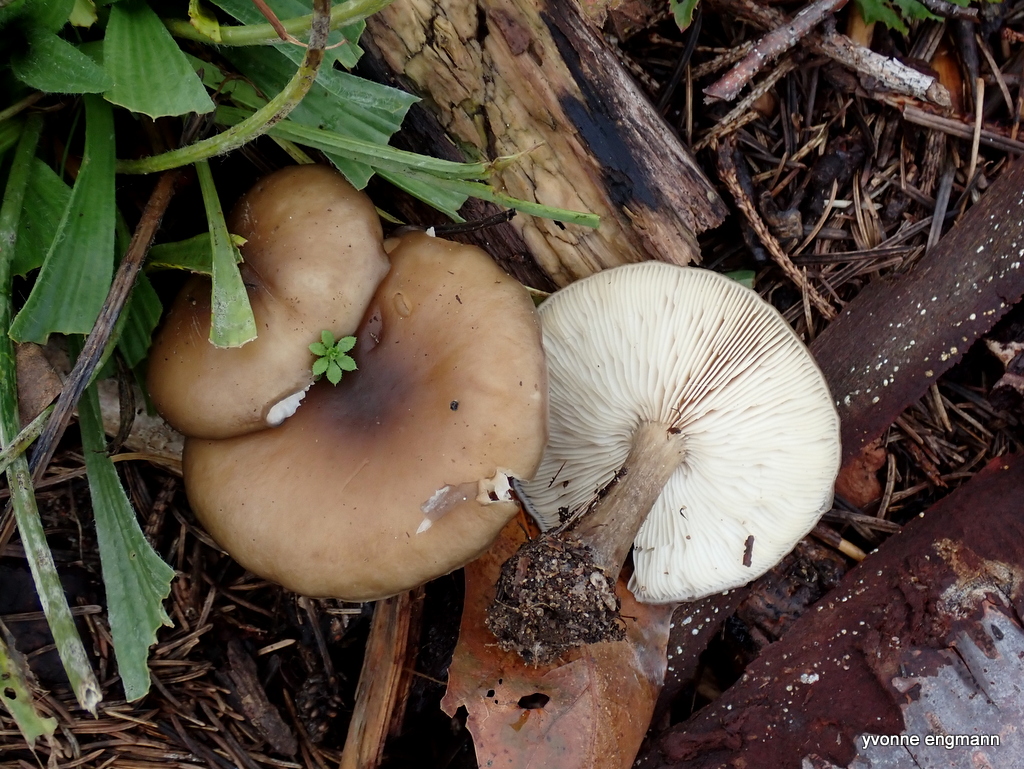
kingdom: Fungi
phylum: Basidiomycota
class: Agaricomycetes
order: Agaricales
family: Tricholomataceae
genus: Melanoleuca
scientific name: Melanoleuca
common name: munkehat
